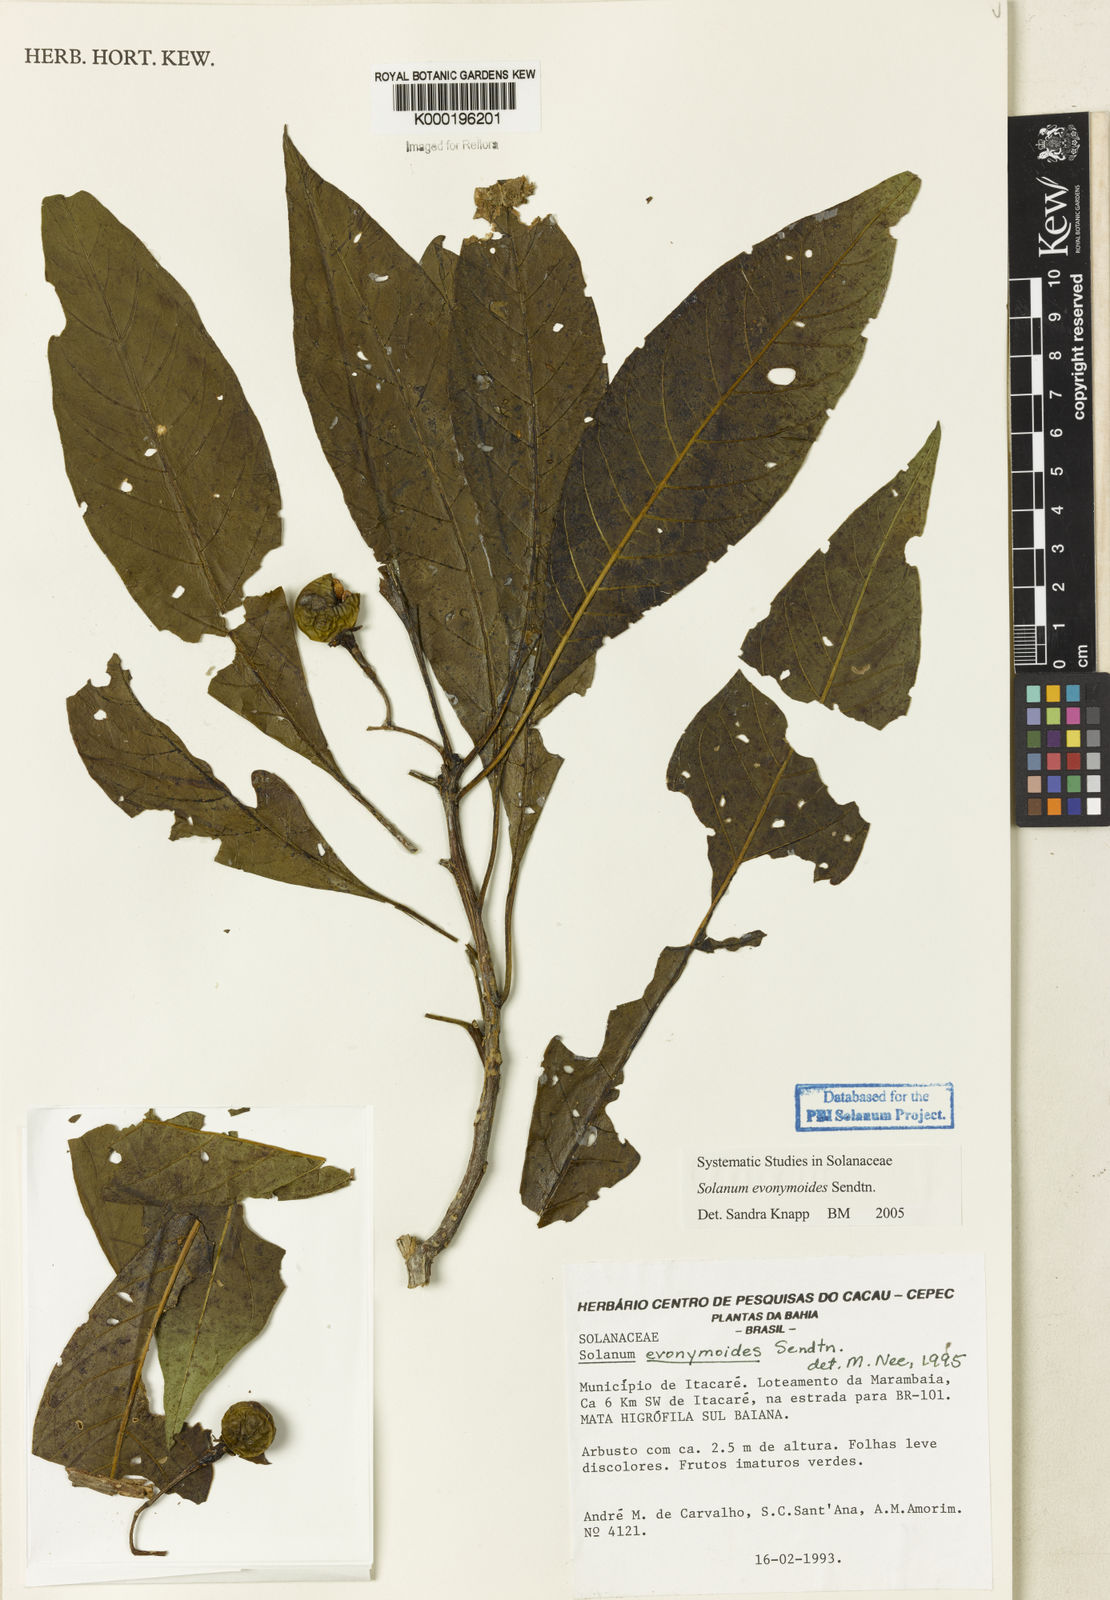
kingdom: Plantae
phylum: Tracheophyta
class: Magnoliopsida
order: Solanales
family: Solanaceae
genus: Solanum
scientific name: Solanum evonymoides
